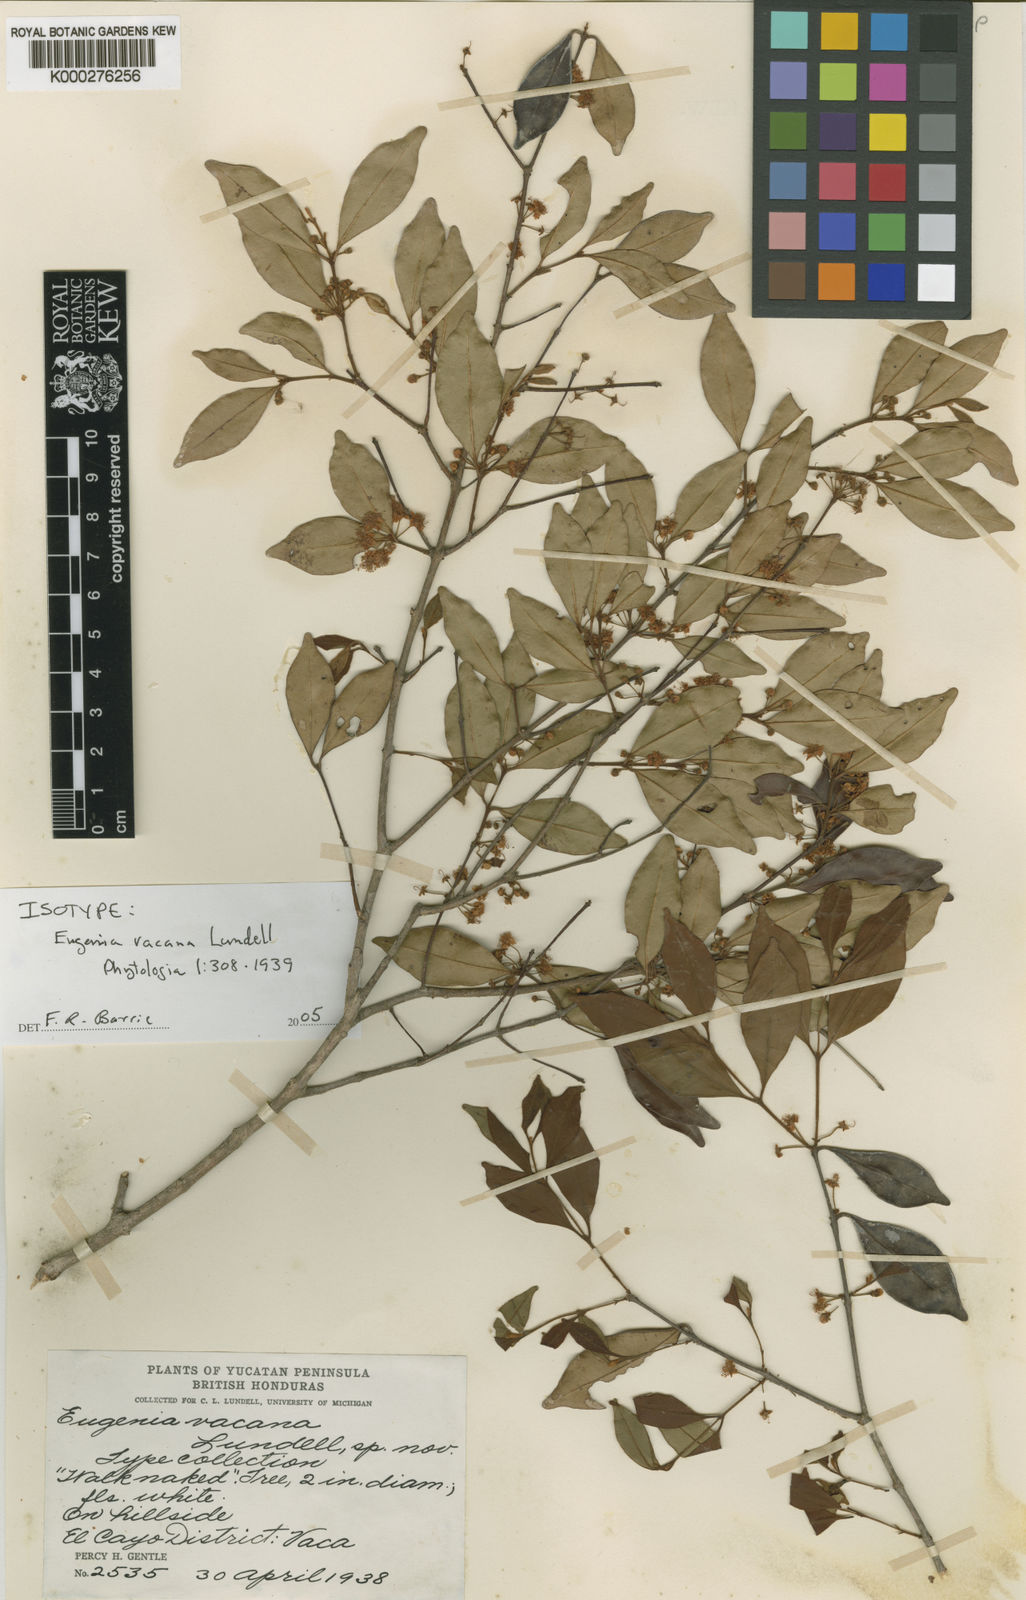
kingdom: Plantae
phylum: Tracheophyta
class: Magnoliopsida
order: Myrtales
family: Myrtaceae
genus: Eugenia
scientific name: Eugenia vacana
